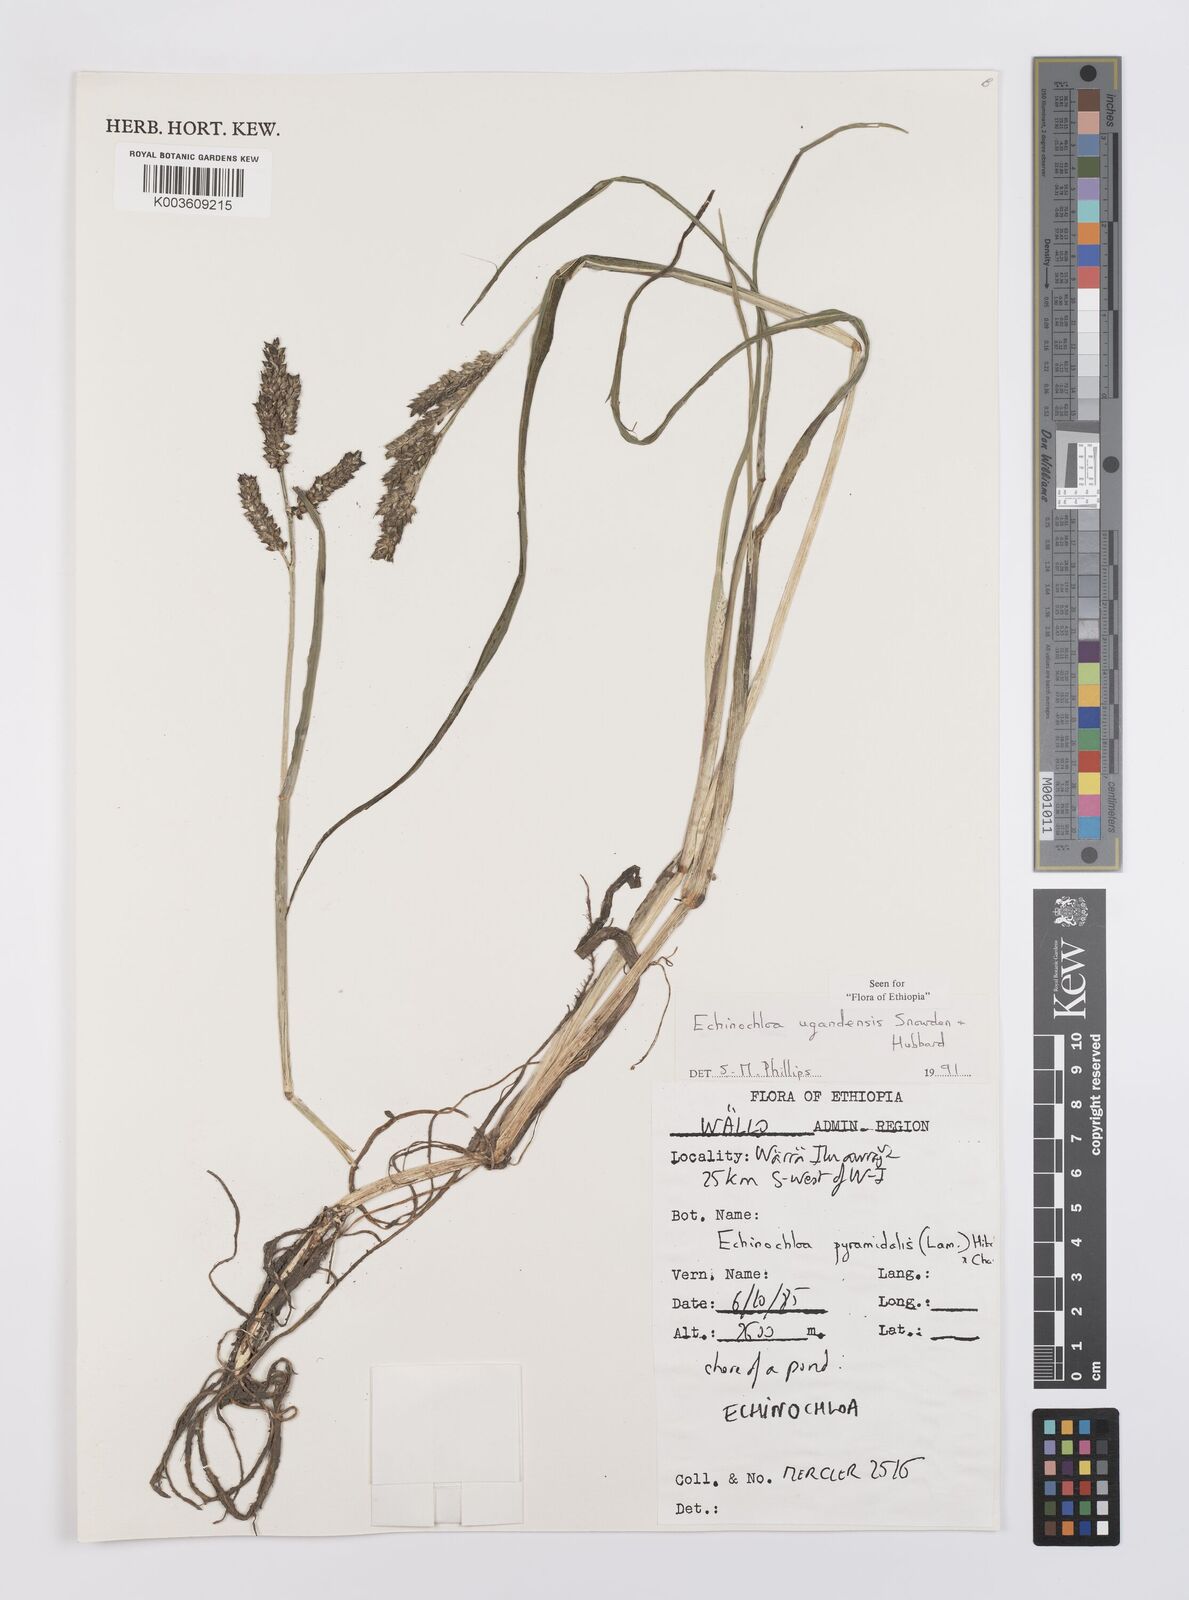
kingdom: Plantae
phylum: Tracheophyta
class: Liliopsida
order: Poales
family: Poaceae
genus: Echinochloa
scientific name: Echinochloa ugandensis
